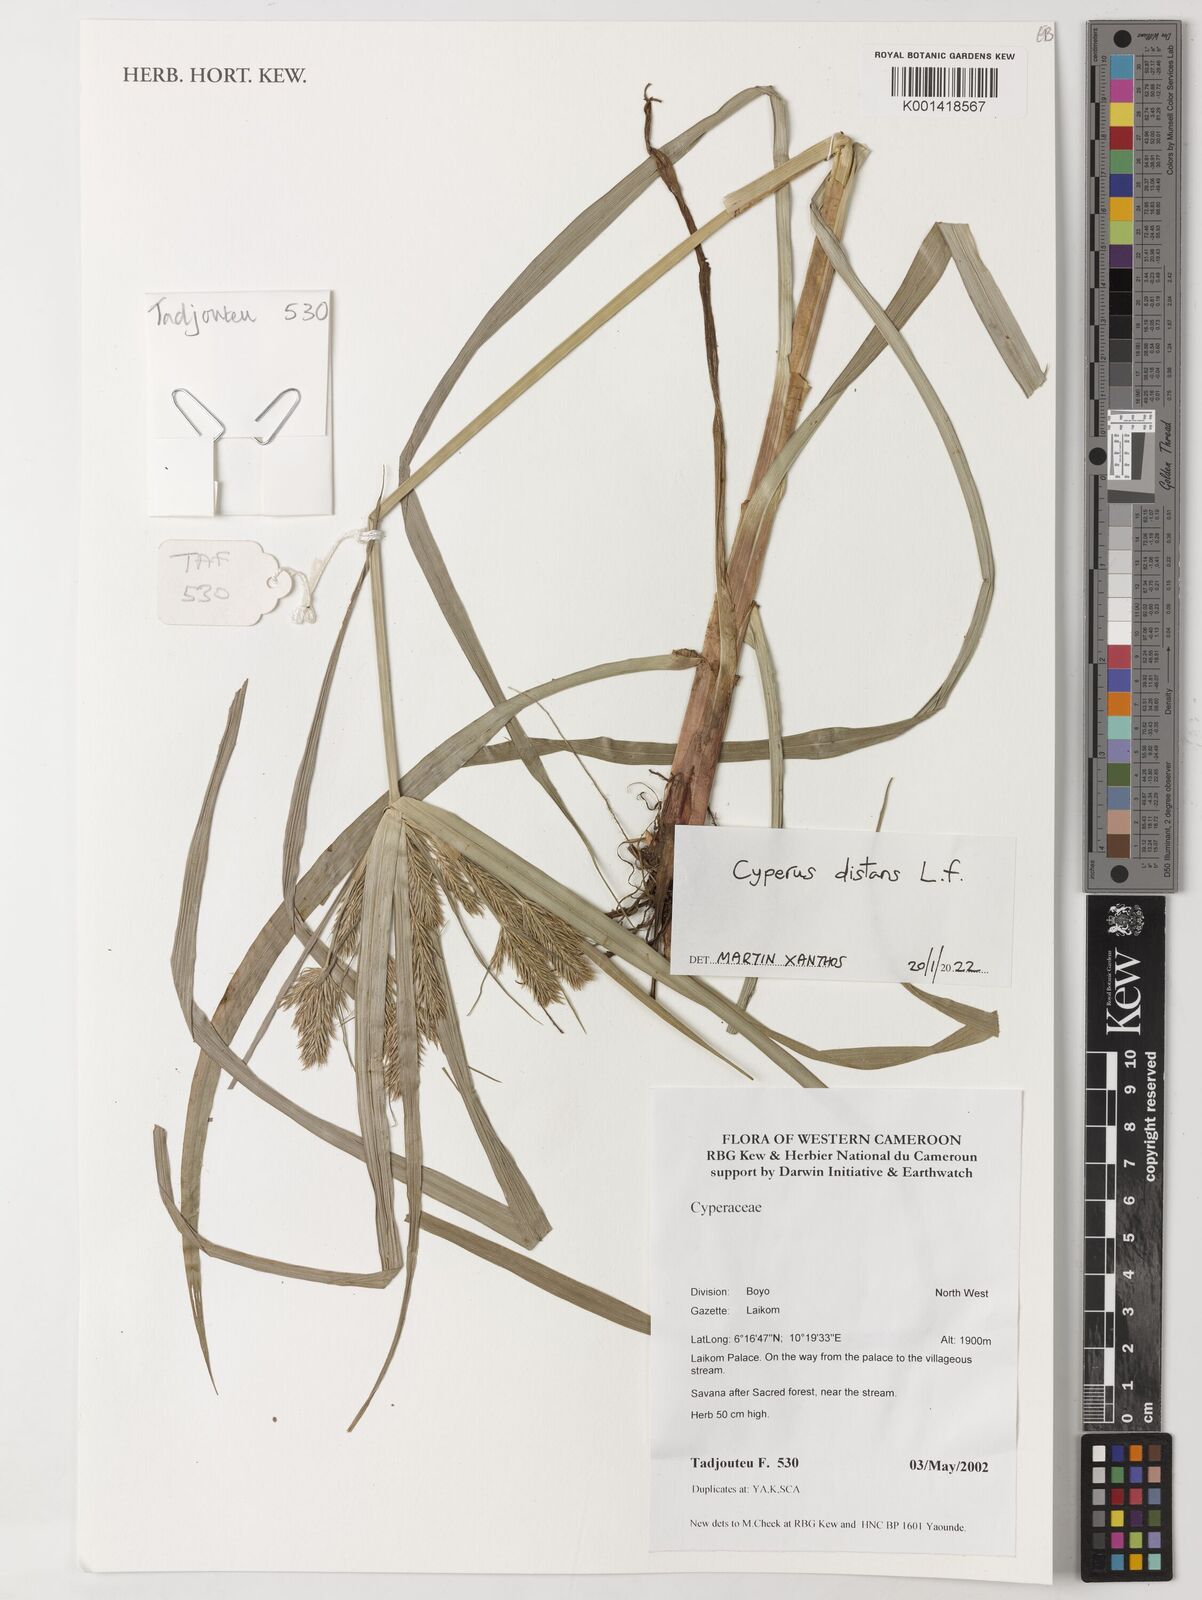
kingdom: Plantae
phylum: Tracheophyta
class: Liliopsida
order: Poales
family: Cyperaceae
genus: Cyperus
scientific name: Cyperus distans
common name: Slender cyperus
